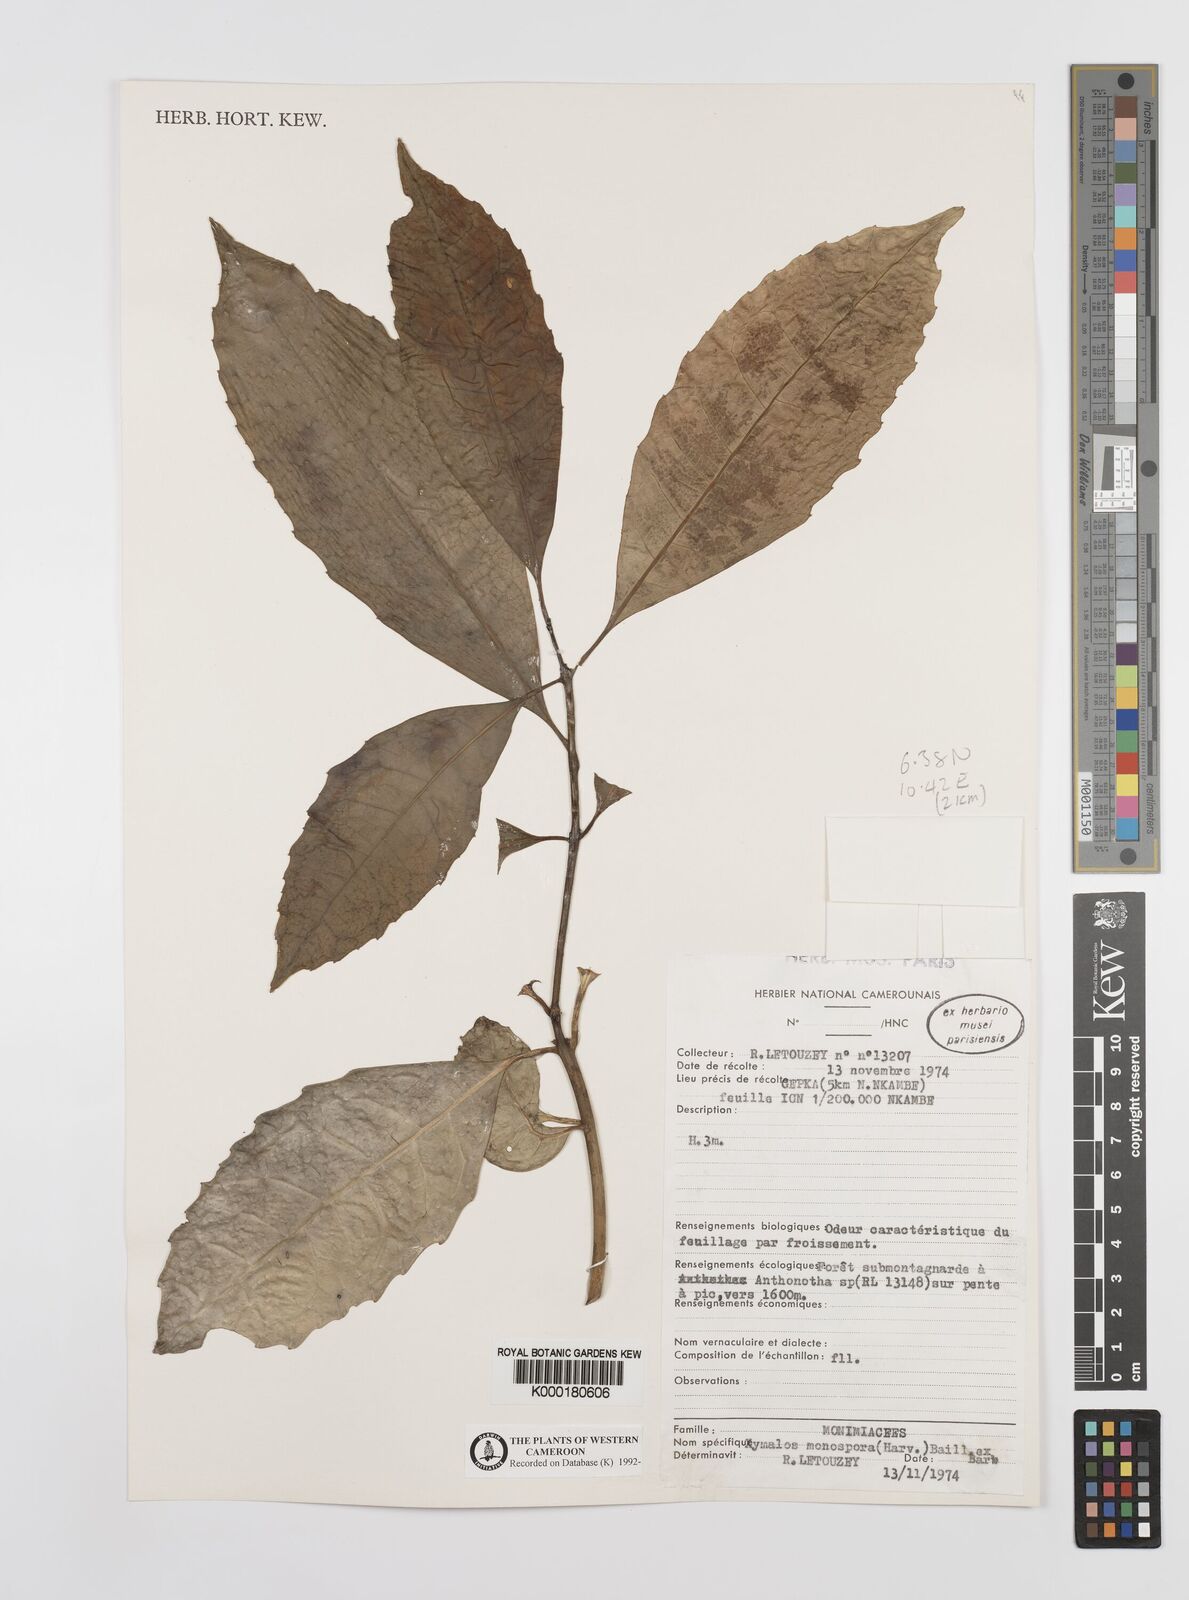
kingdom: Plantae
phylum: Tracheophyta
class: Magnoliopsida
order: Laurales
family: Monimiaceae
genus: Xymalos
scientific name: Xymalos
